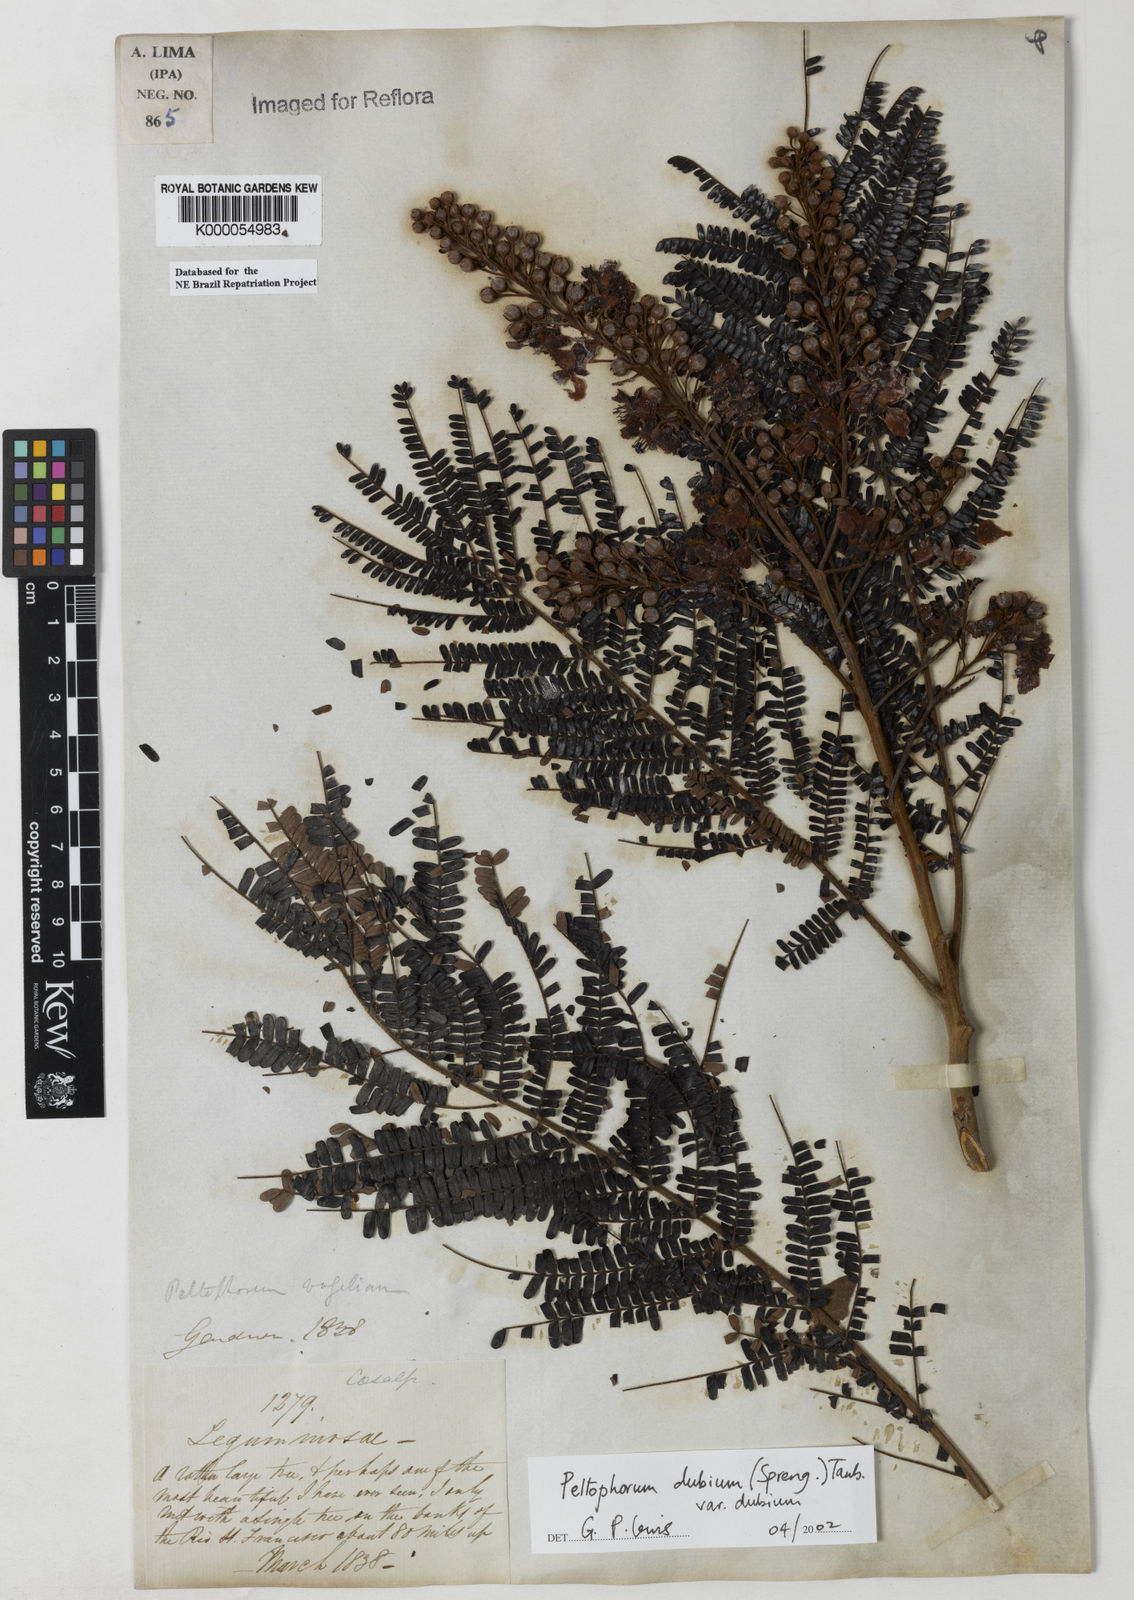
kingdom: Plantae
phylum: Tracheophyta
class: Magnoliopsida
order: Fabales
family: Fabaceae
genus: Peltophorum
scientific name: Peltophorum dubium
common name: Horsebush
